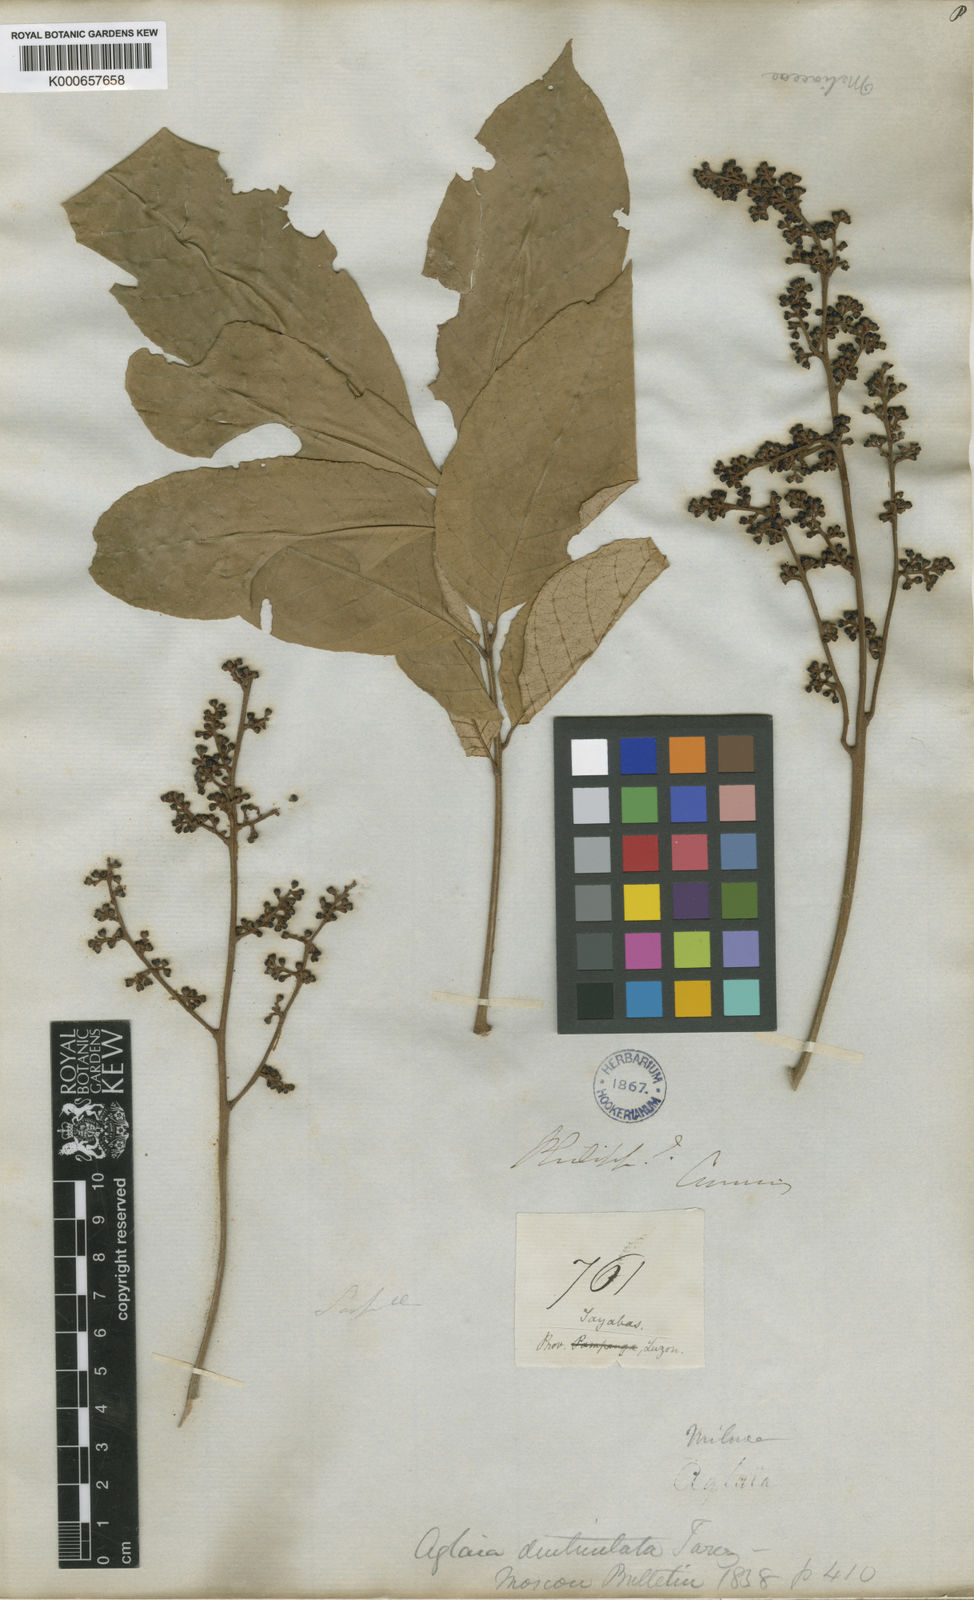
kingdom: Plantae
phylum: Tracheophyta
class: Magnoliopsida
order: Sapindales
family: Meliaceae
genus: Aglaia
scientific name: Aglaia rimosa
